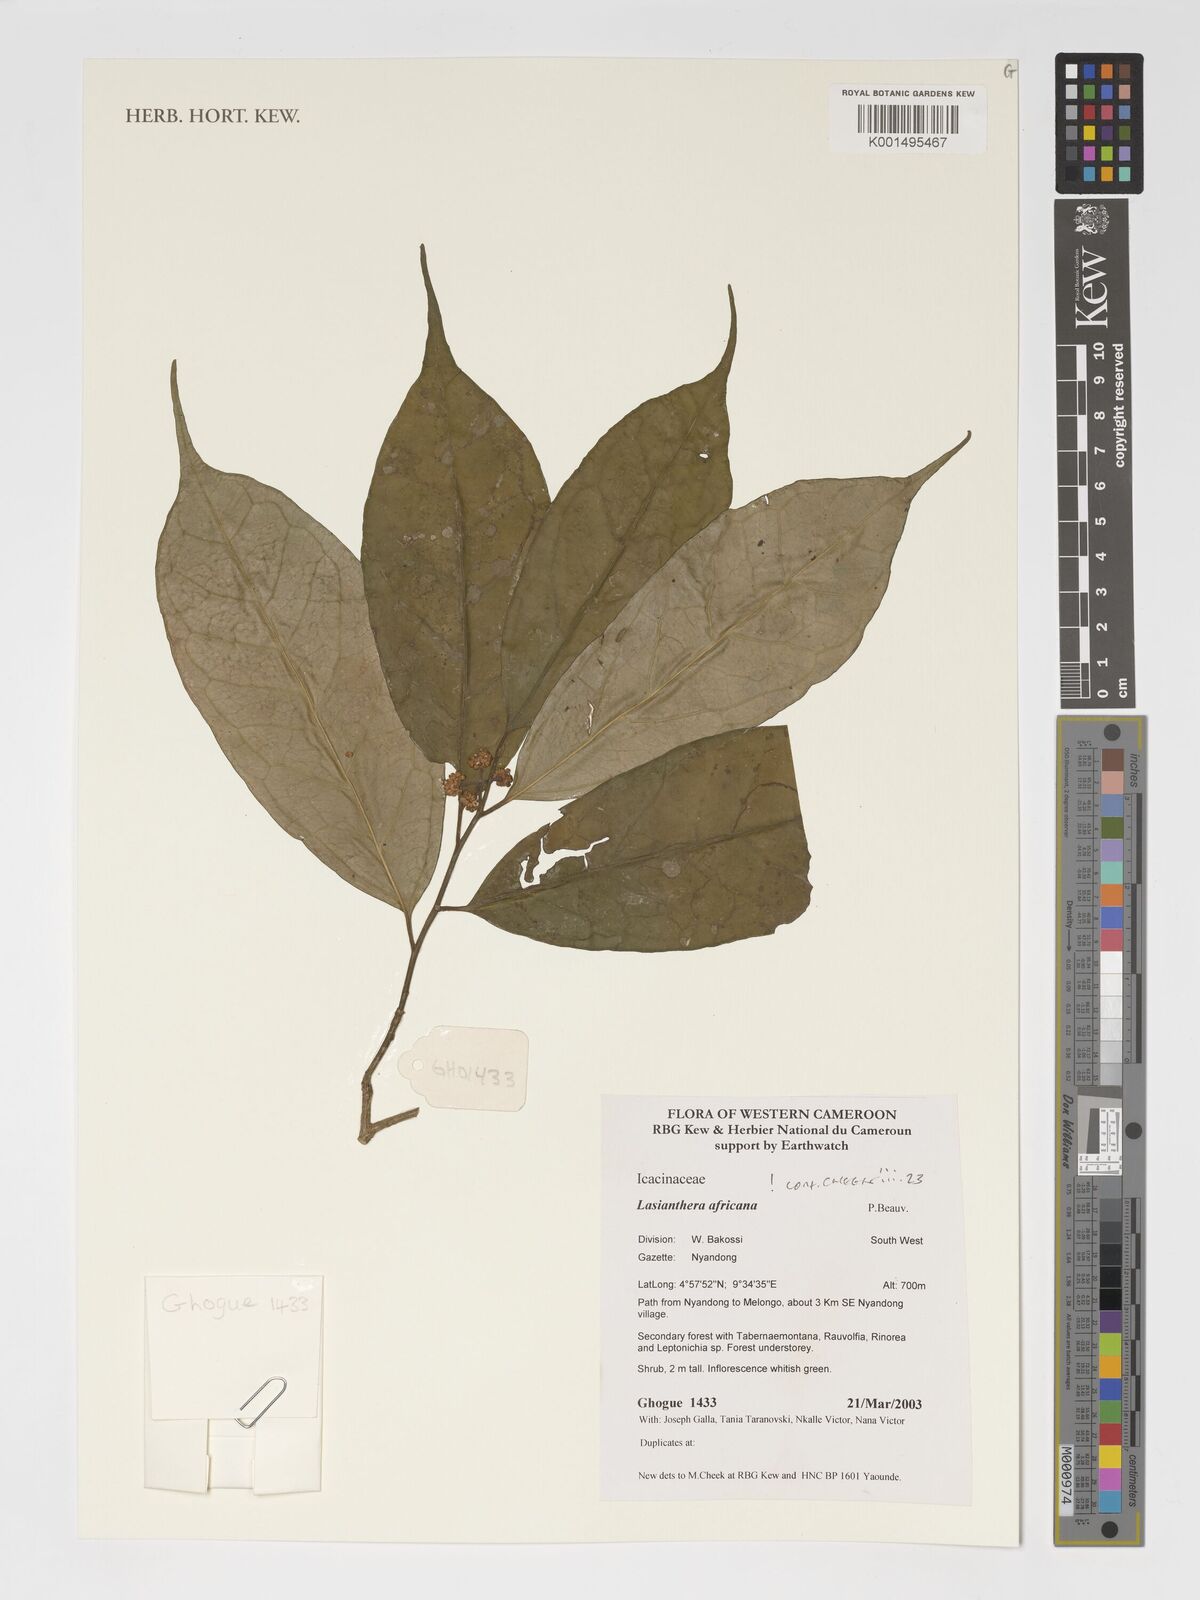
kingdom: Plantae
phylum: Tracheophyta
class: Magnoliopsida
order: Cardiopteridales
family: Stemonuraceae
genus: Lasianthera
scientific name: Lasianthera africana
